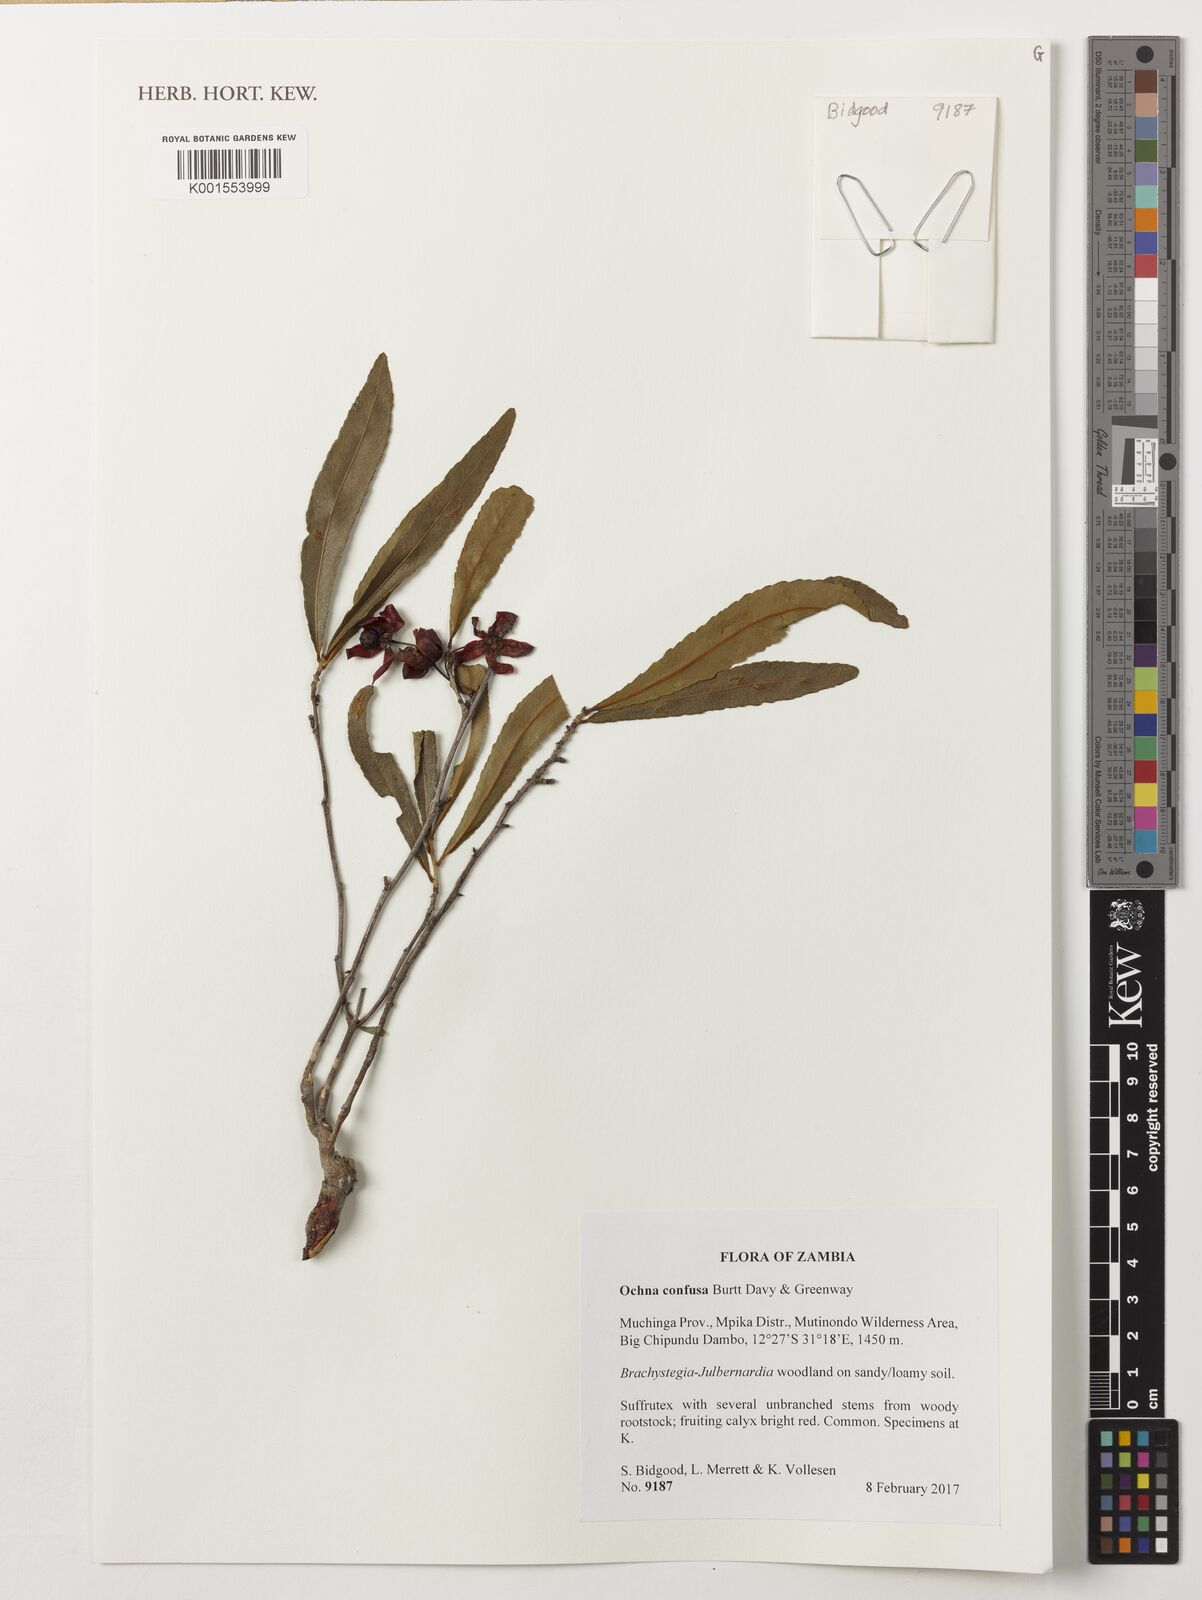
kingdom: Plantae
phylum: Tracheophyta
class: Magnoliopsida
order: Malpighiales
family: Ochnaceae
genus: Ochna
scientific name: Ochna confusa
